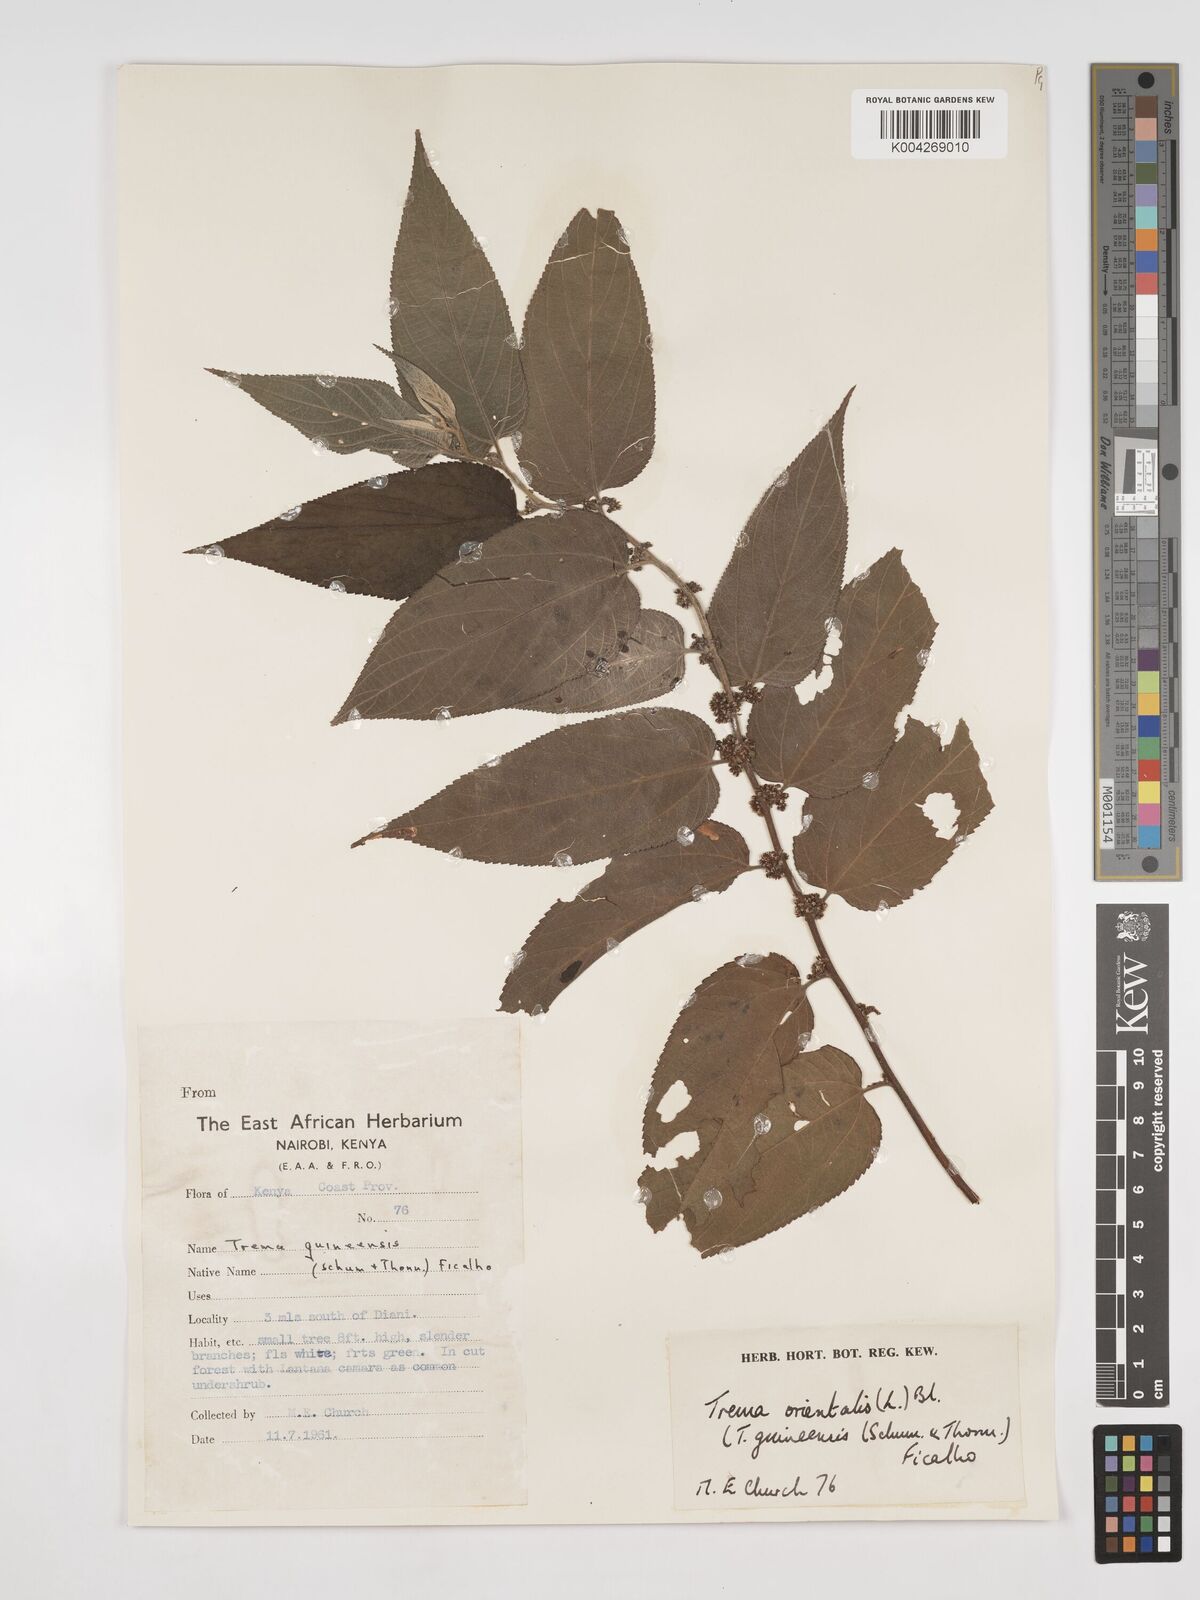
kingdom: Plantae
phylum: Tracheophyta
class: Magnoliopsida
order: Rosales
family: Cannabaceae
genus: Trema
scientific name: Trema orientale
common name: Indian charcoal tree
